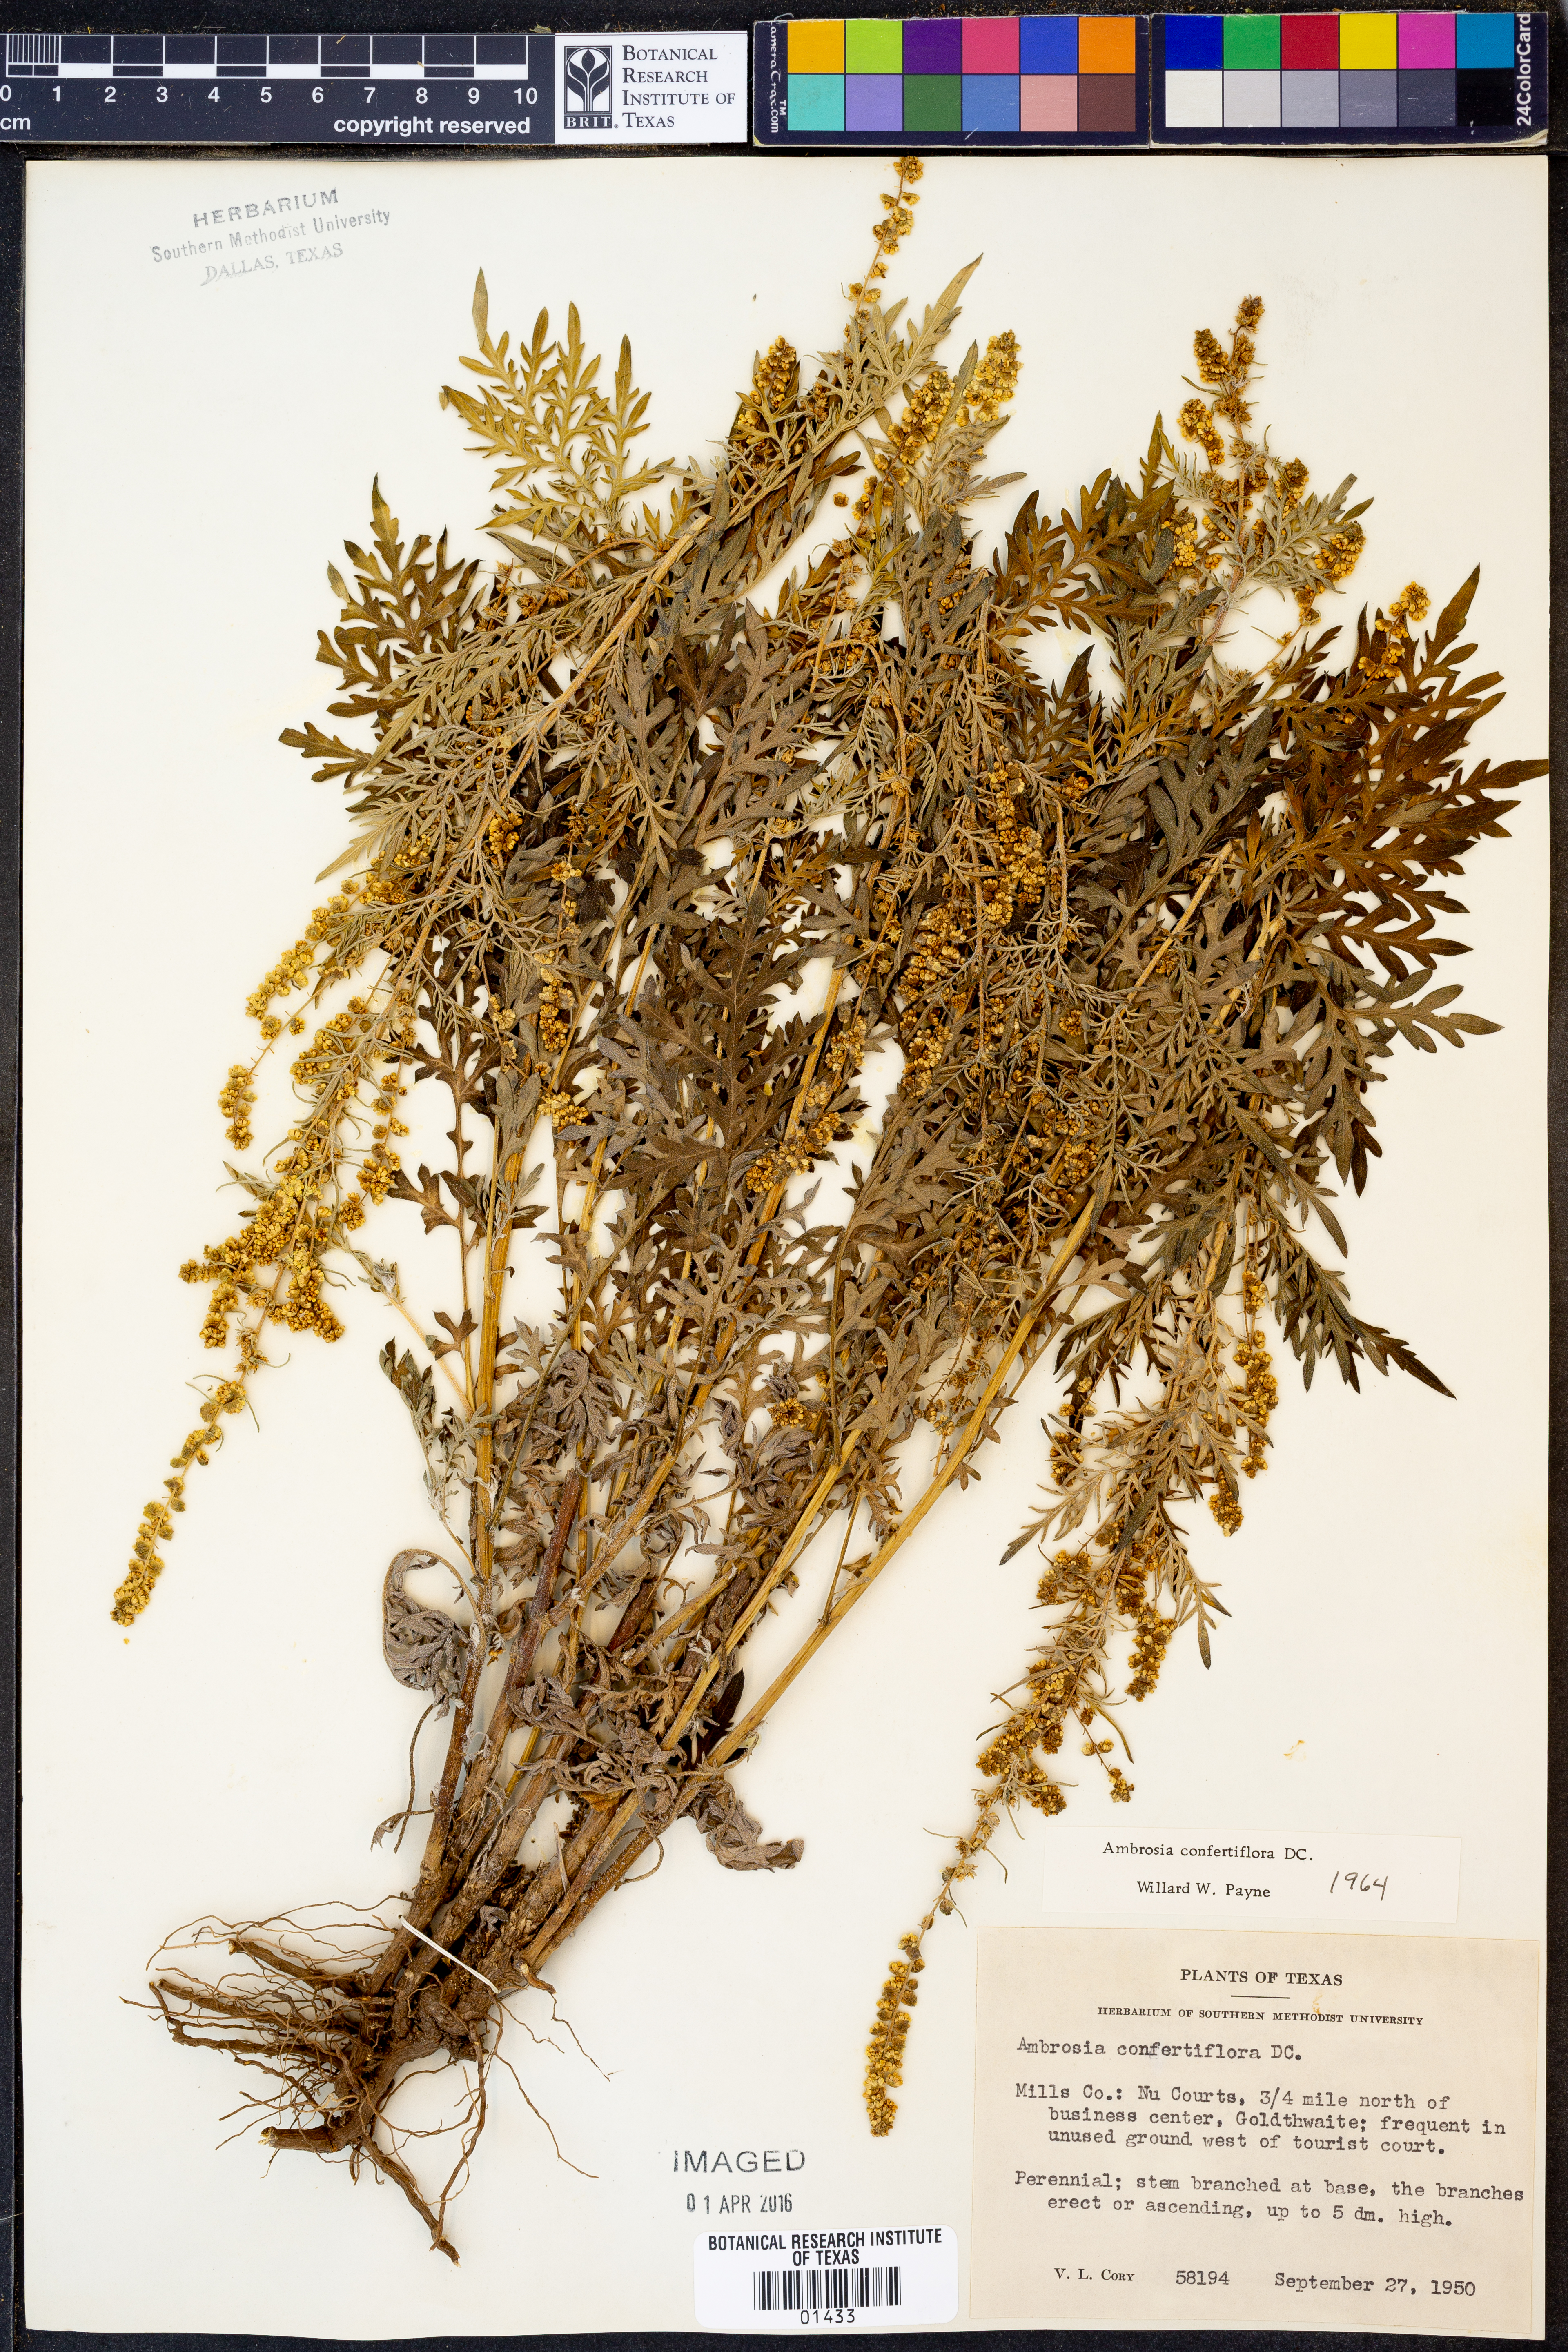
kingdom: Plantae
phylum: Tracheophyta
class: Magnoliopsida
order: Asterales
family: Asteraceae
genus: Ambrosia
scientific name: Ambrosia confertiflora
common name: Bur ragweed
